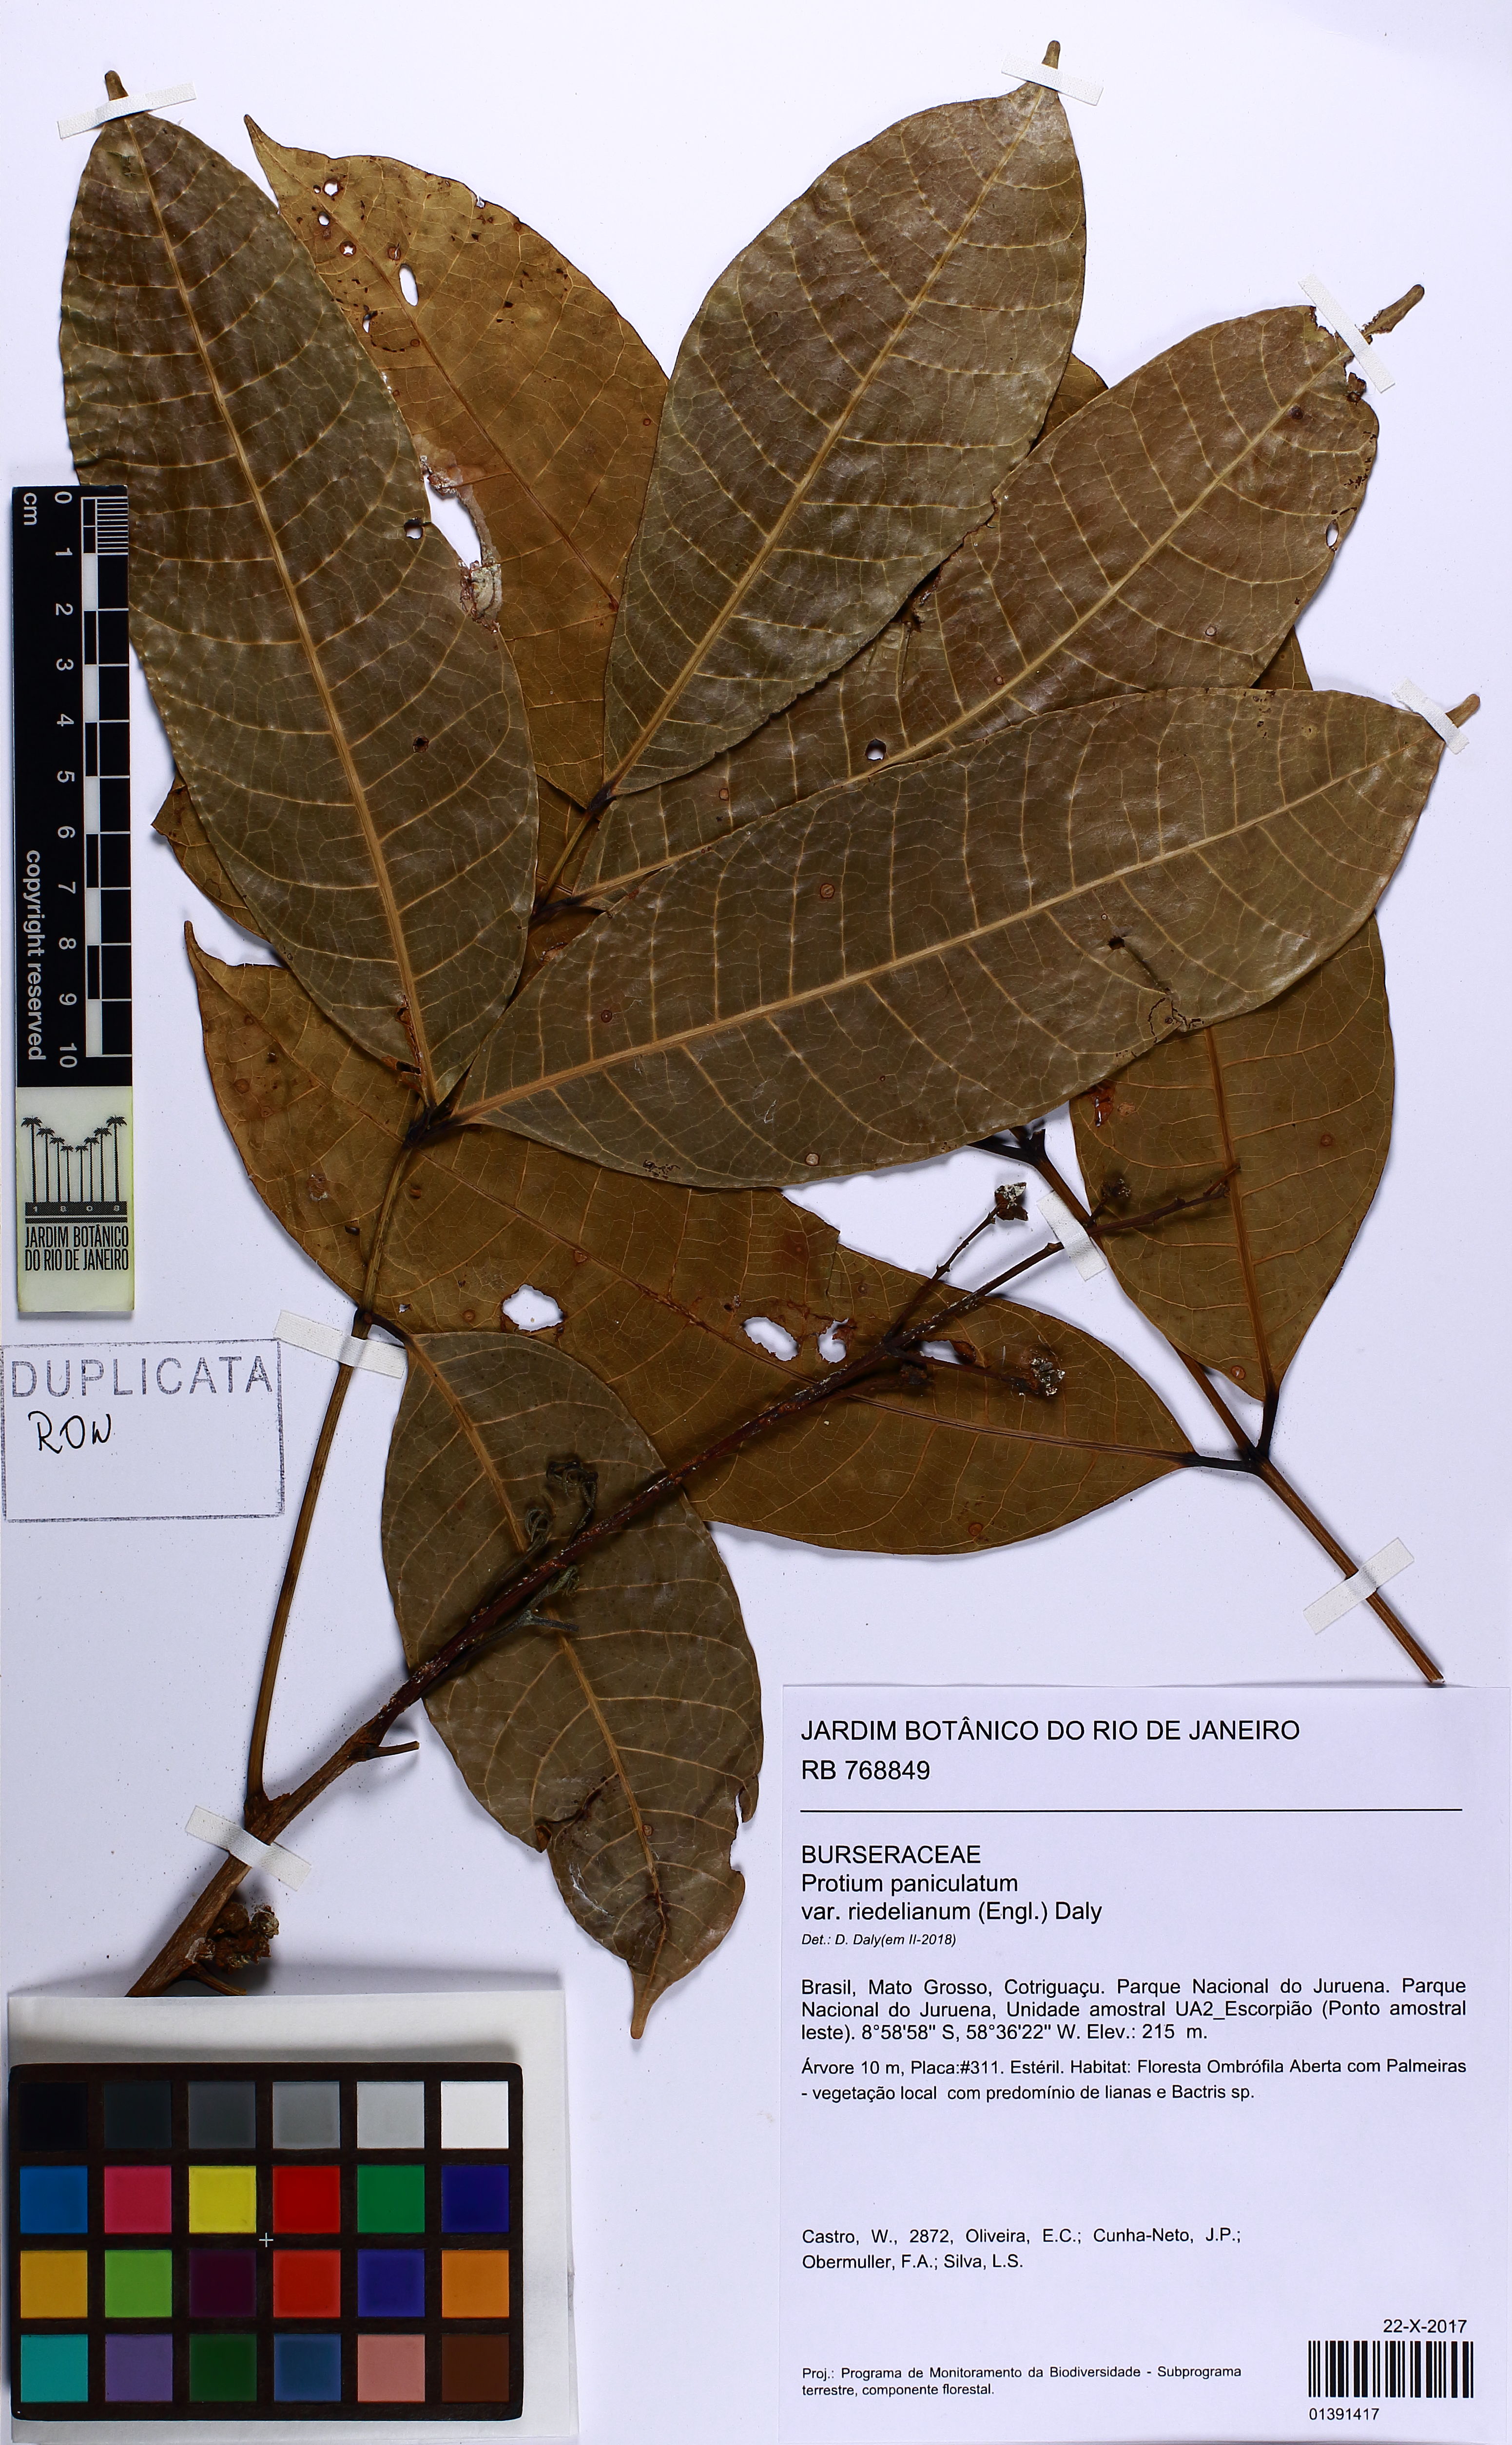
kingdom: Plantae
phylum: Tracheophyta
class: Magnoliopsida
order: Sapindales
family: Burseraceae
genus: Protium
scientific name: Protium paniculatum
